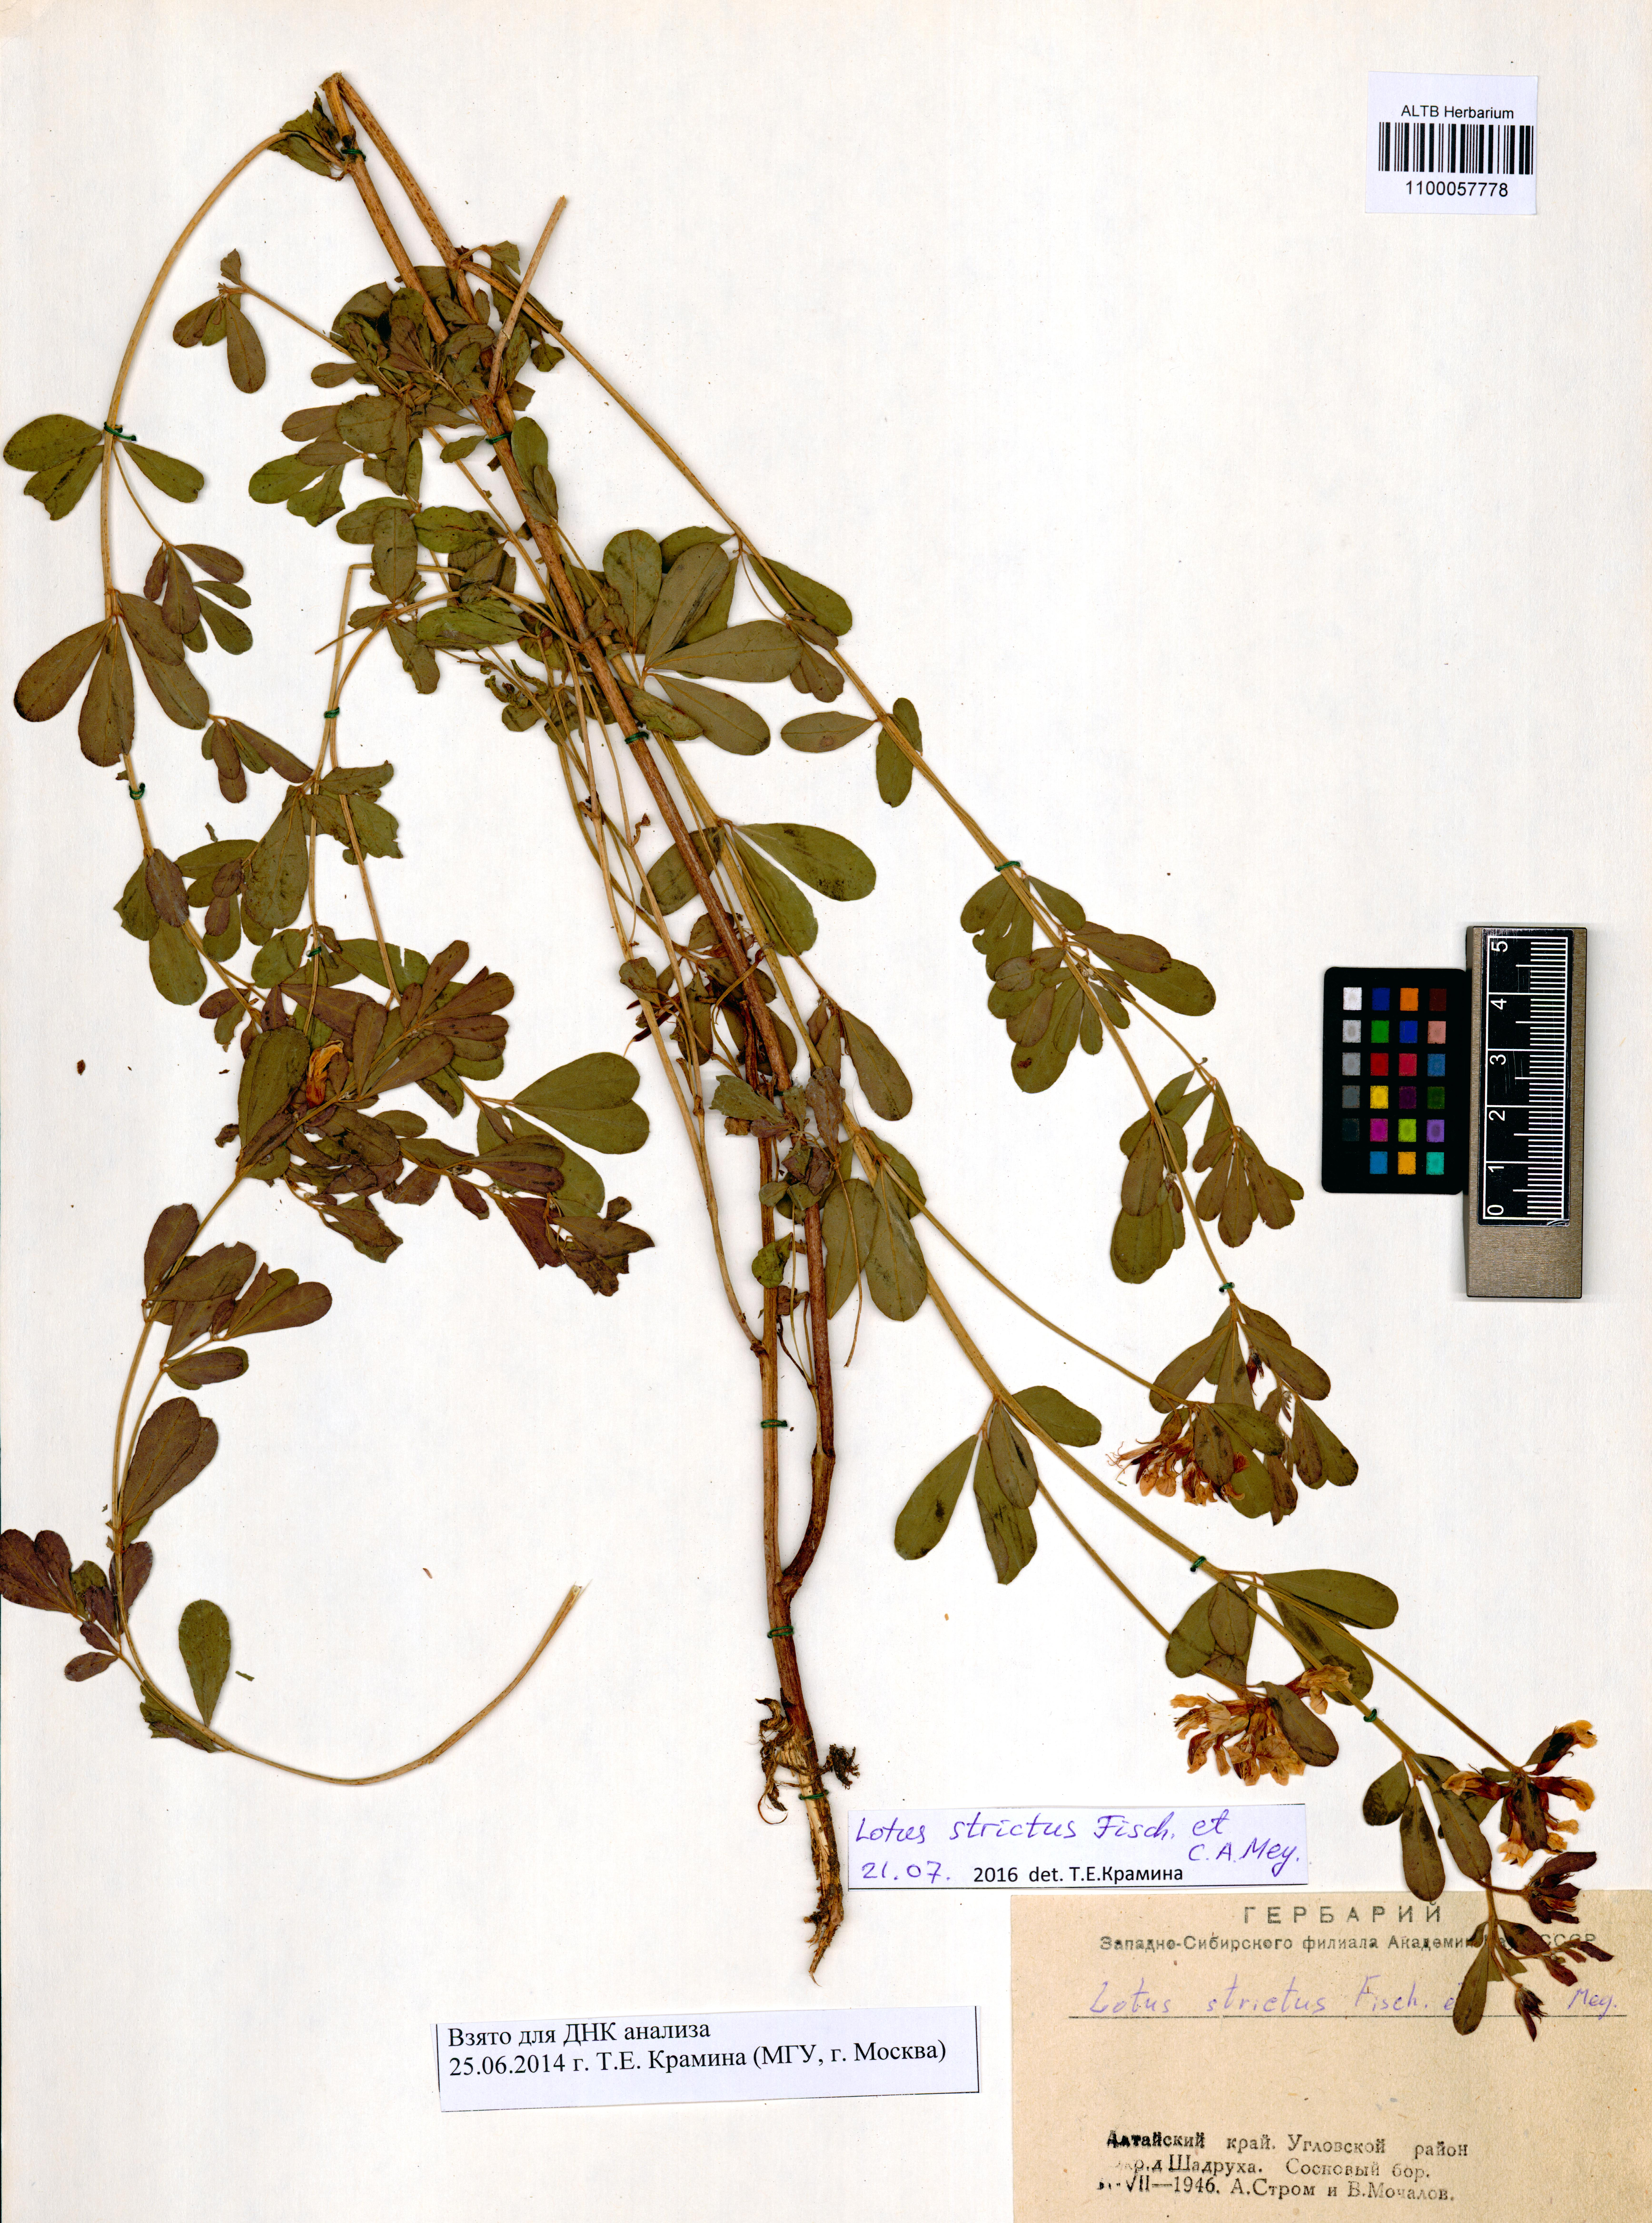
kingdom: Plantae
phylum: Tracheophyta
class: Magnoliopsida
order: Fabales
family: Fabaceae
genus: Lotus
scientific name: Lotus strictus
